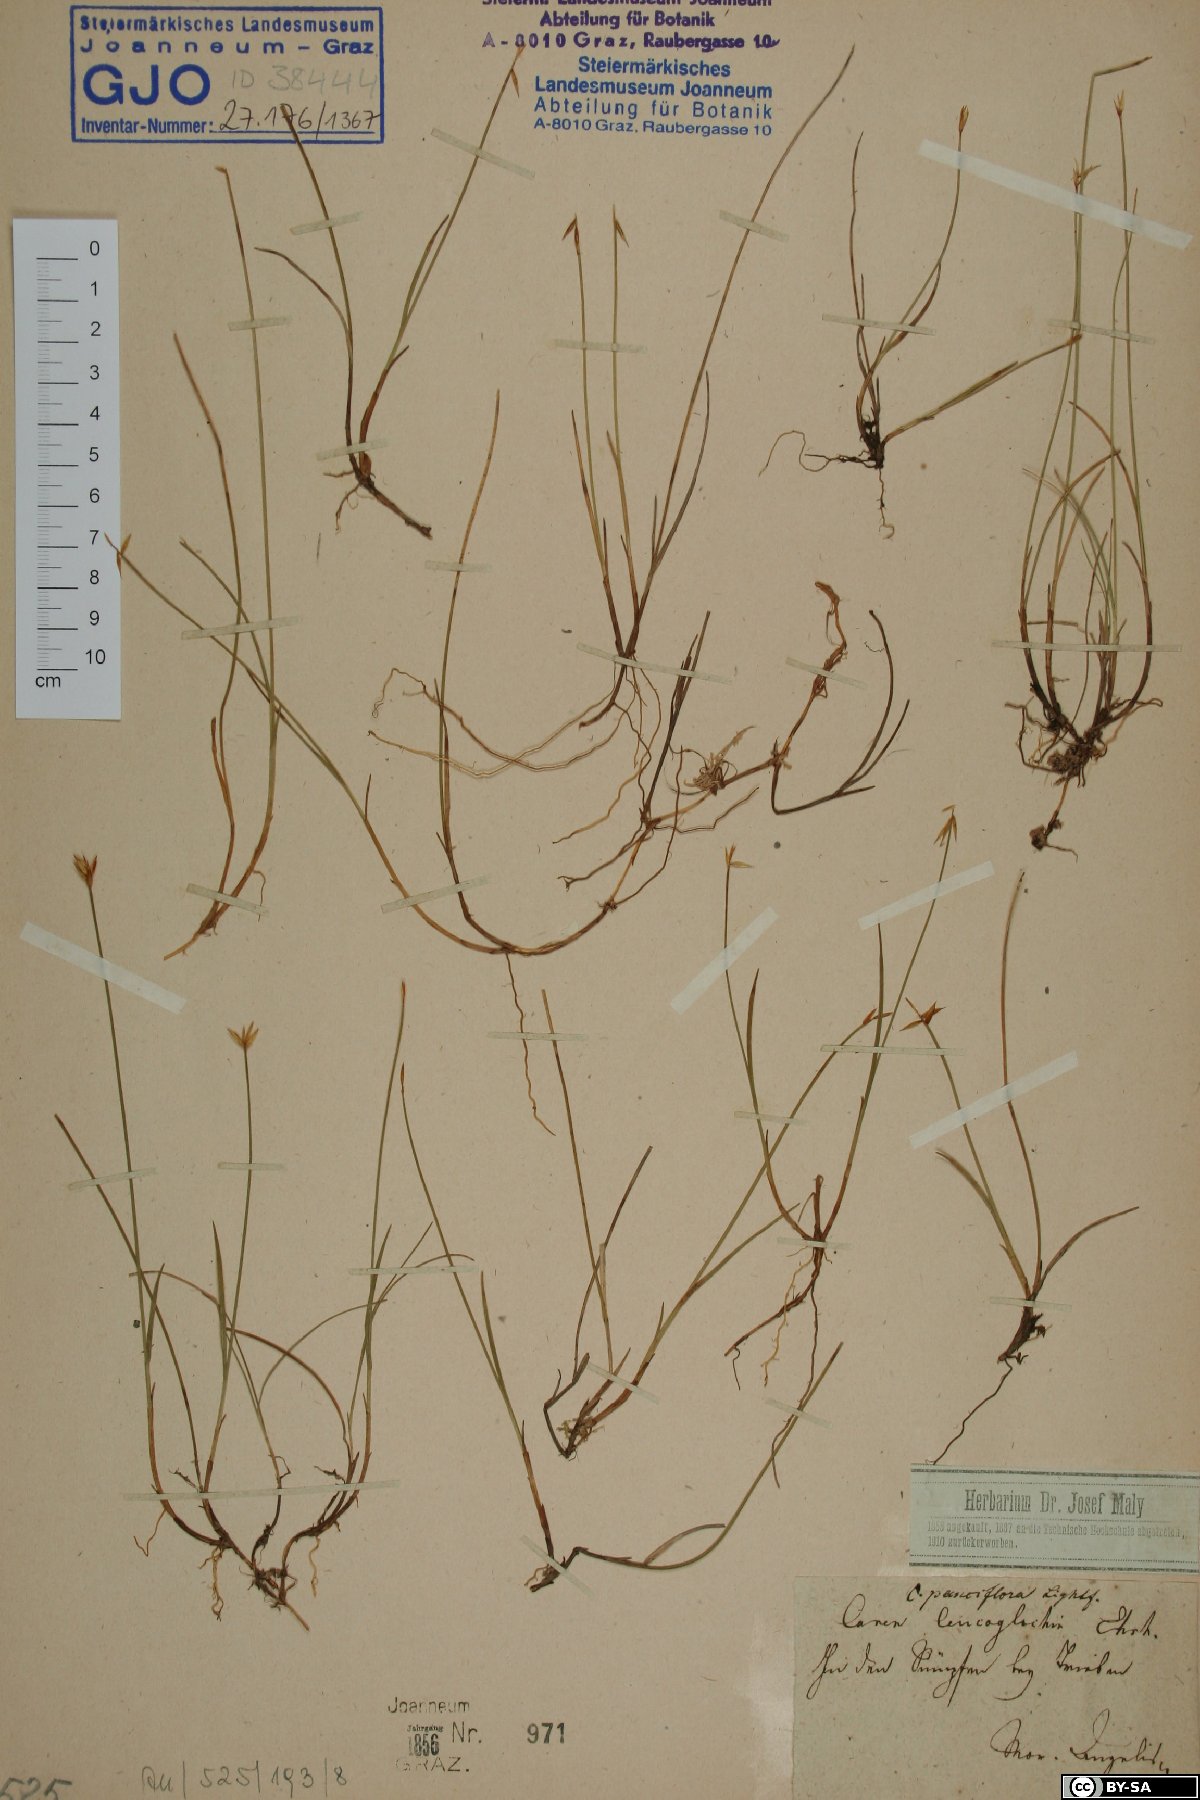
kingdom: Plantae
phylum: Tracheophyta
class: Liliopsida
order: Poales
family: Cyperaceae
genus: Carex
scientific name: Carex obtusata
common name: Blunt sedge
